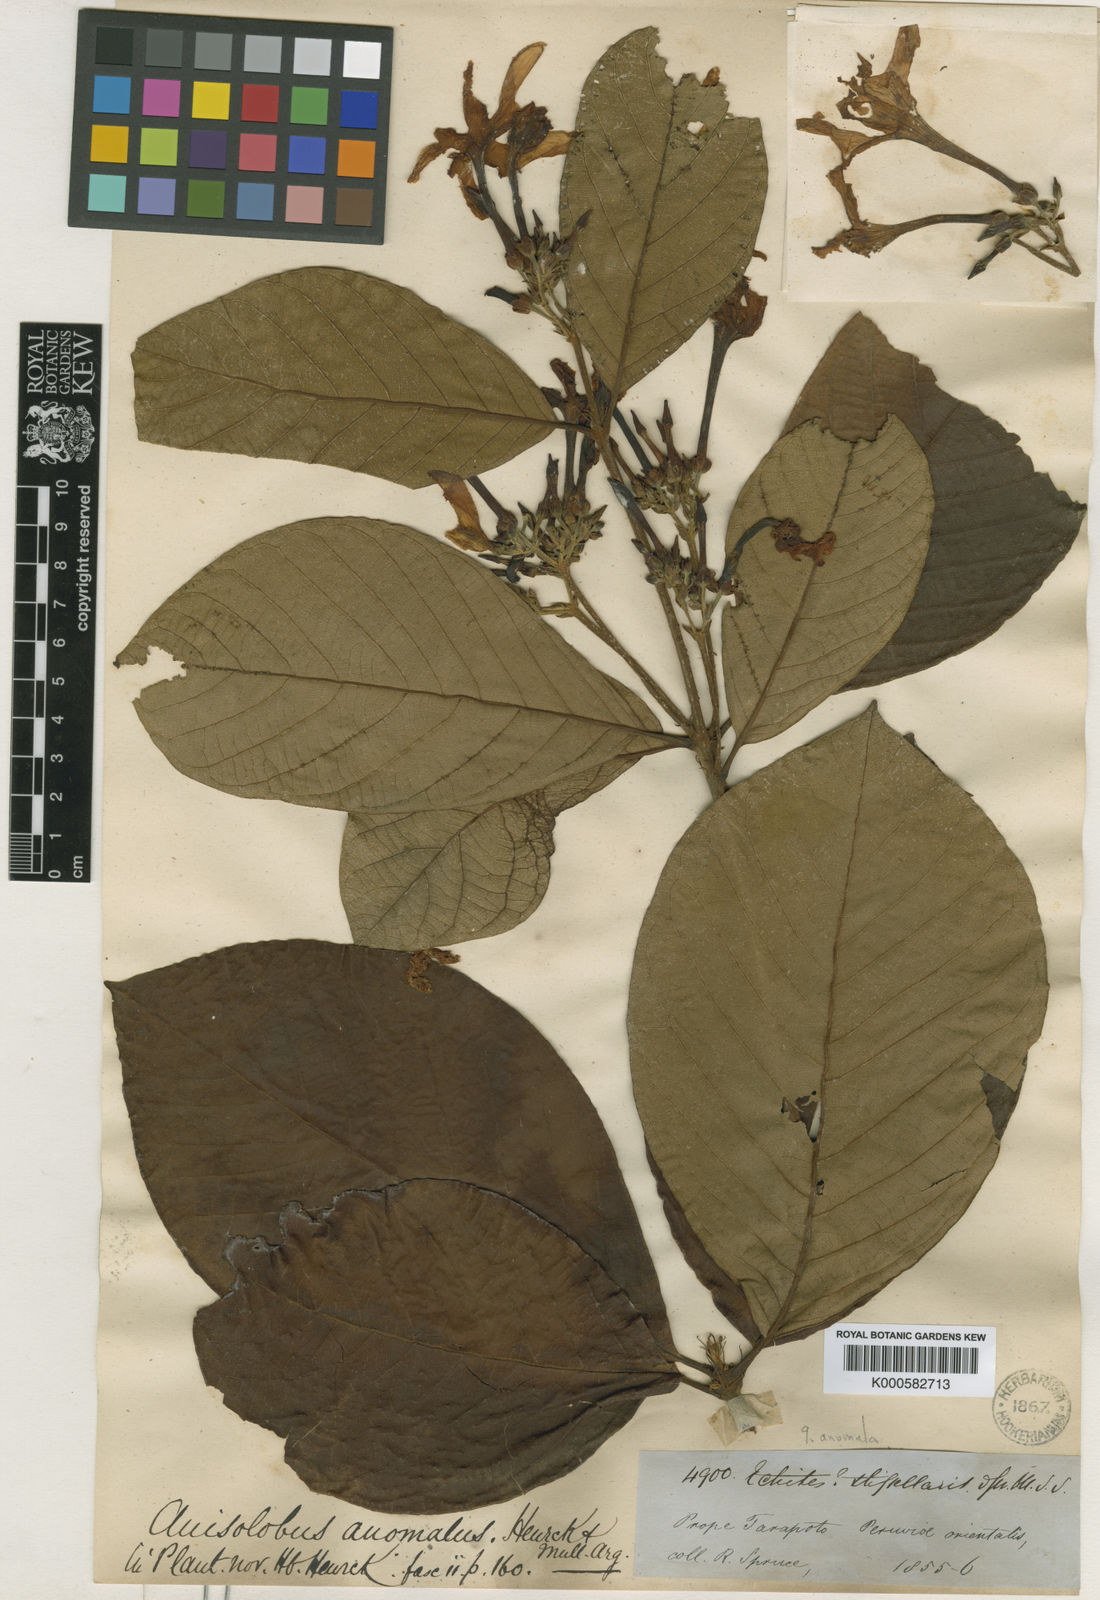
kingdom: Plantae
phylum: Tracheophyta
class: Magnoliopsida
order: Gentianales
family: Apocynaceae
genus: Odontadenia
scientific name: Odontadenia
